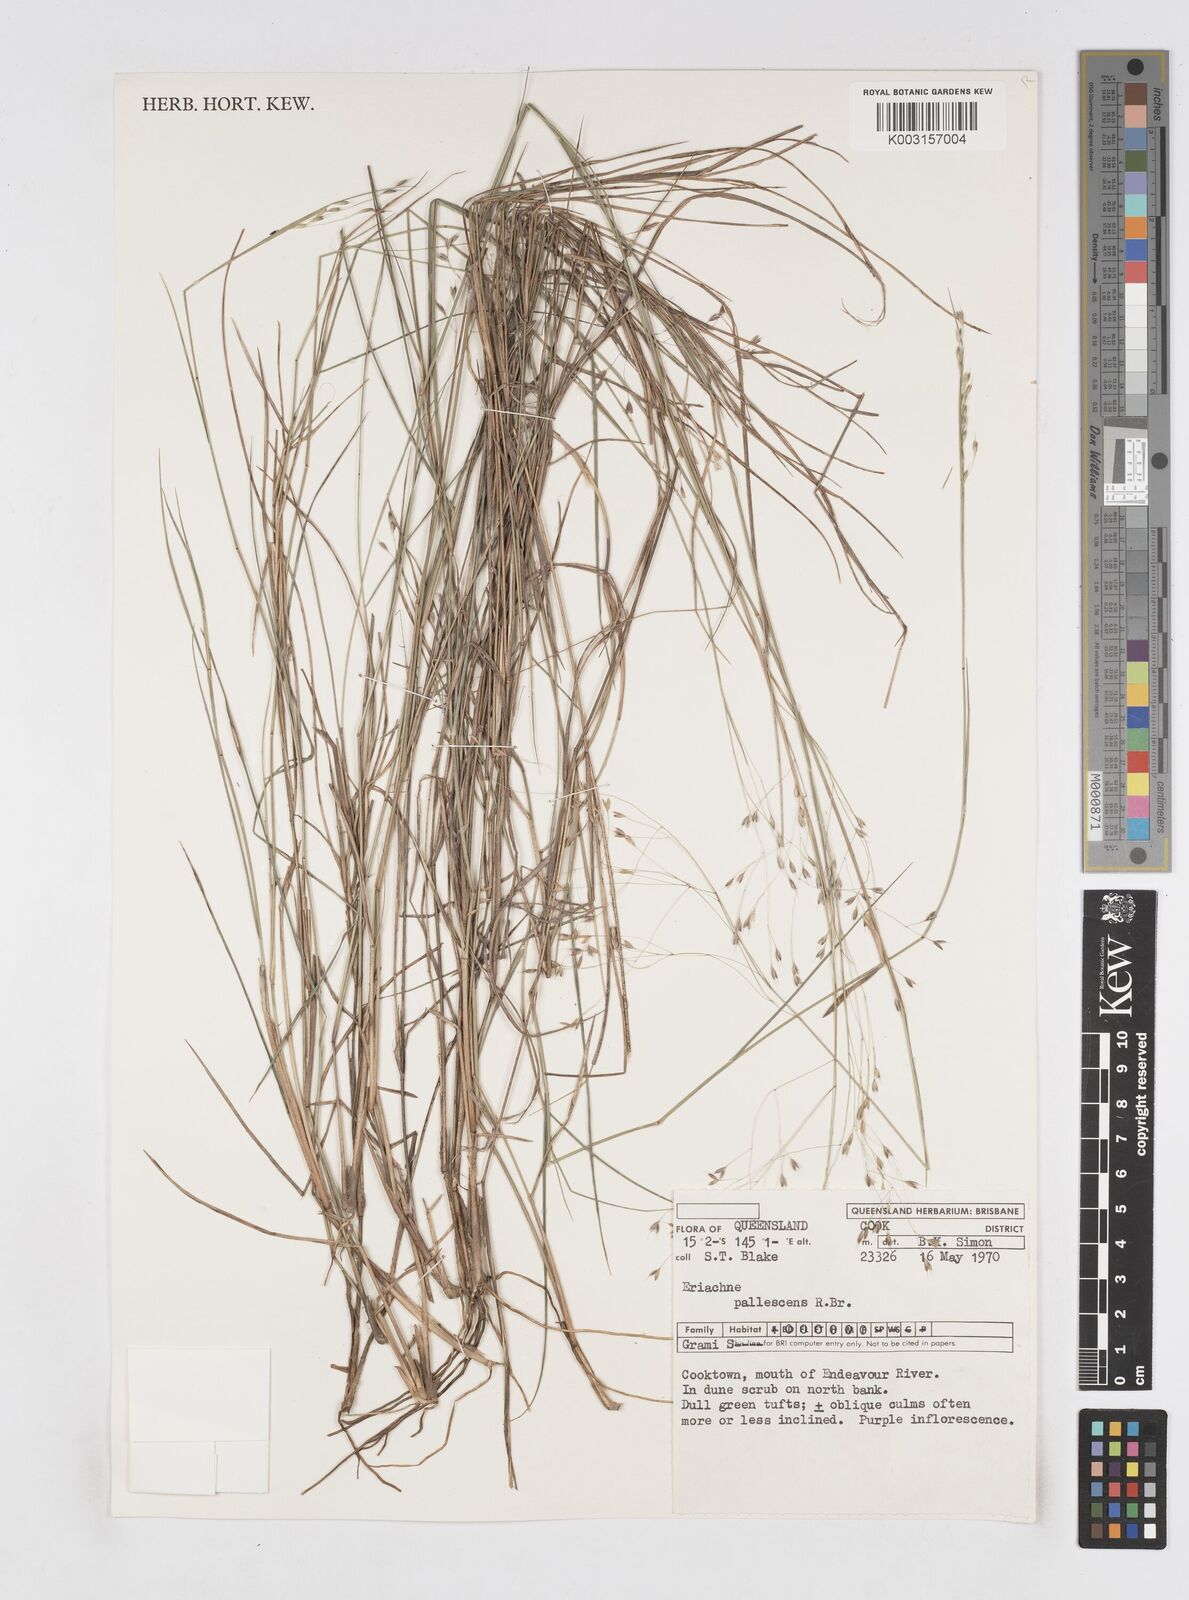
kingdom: Plantae
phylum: Tracheophyta
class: Liliopsida
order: Poales
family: Poaceae
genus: Eriachne
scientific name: Eriachne pallescens
